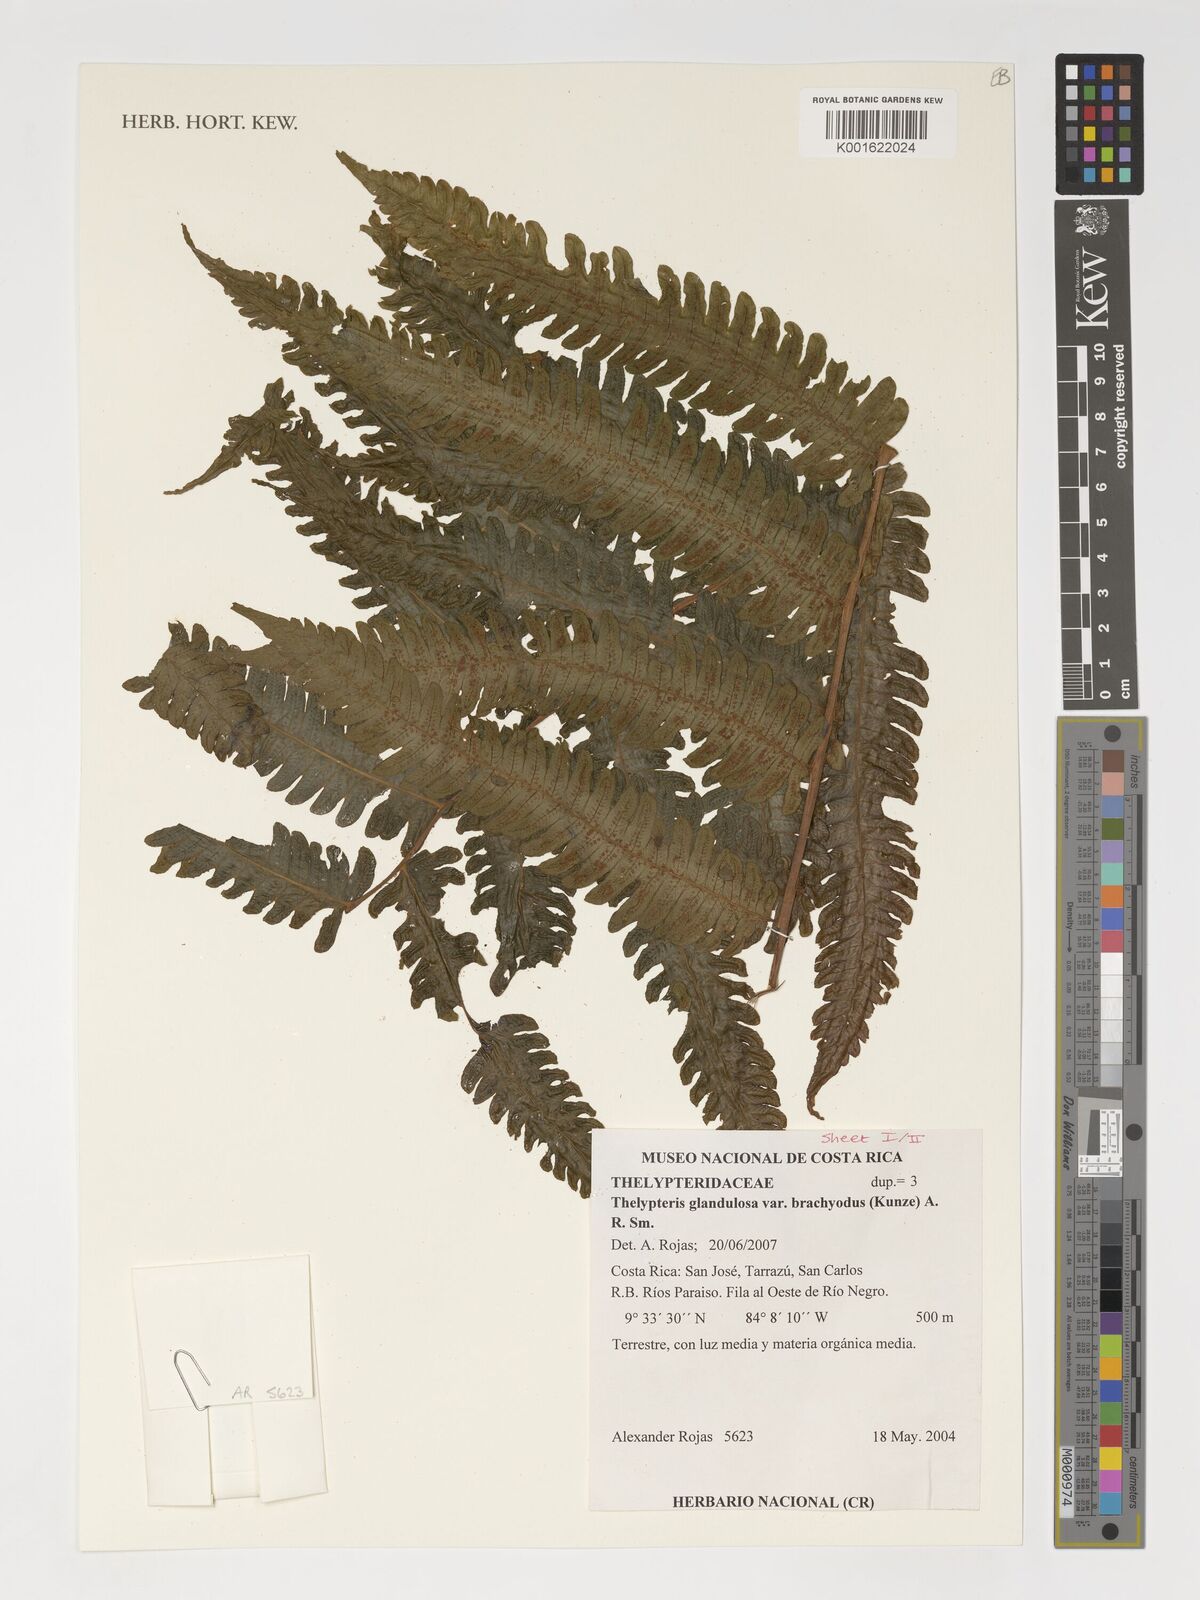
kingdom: Plantae
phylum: Tracheophyta
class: Polypodiopsida
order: Polypodiales
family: Thelypteridaceae
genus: Steiropteris
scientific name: Steiropteris glandulosa
